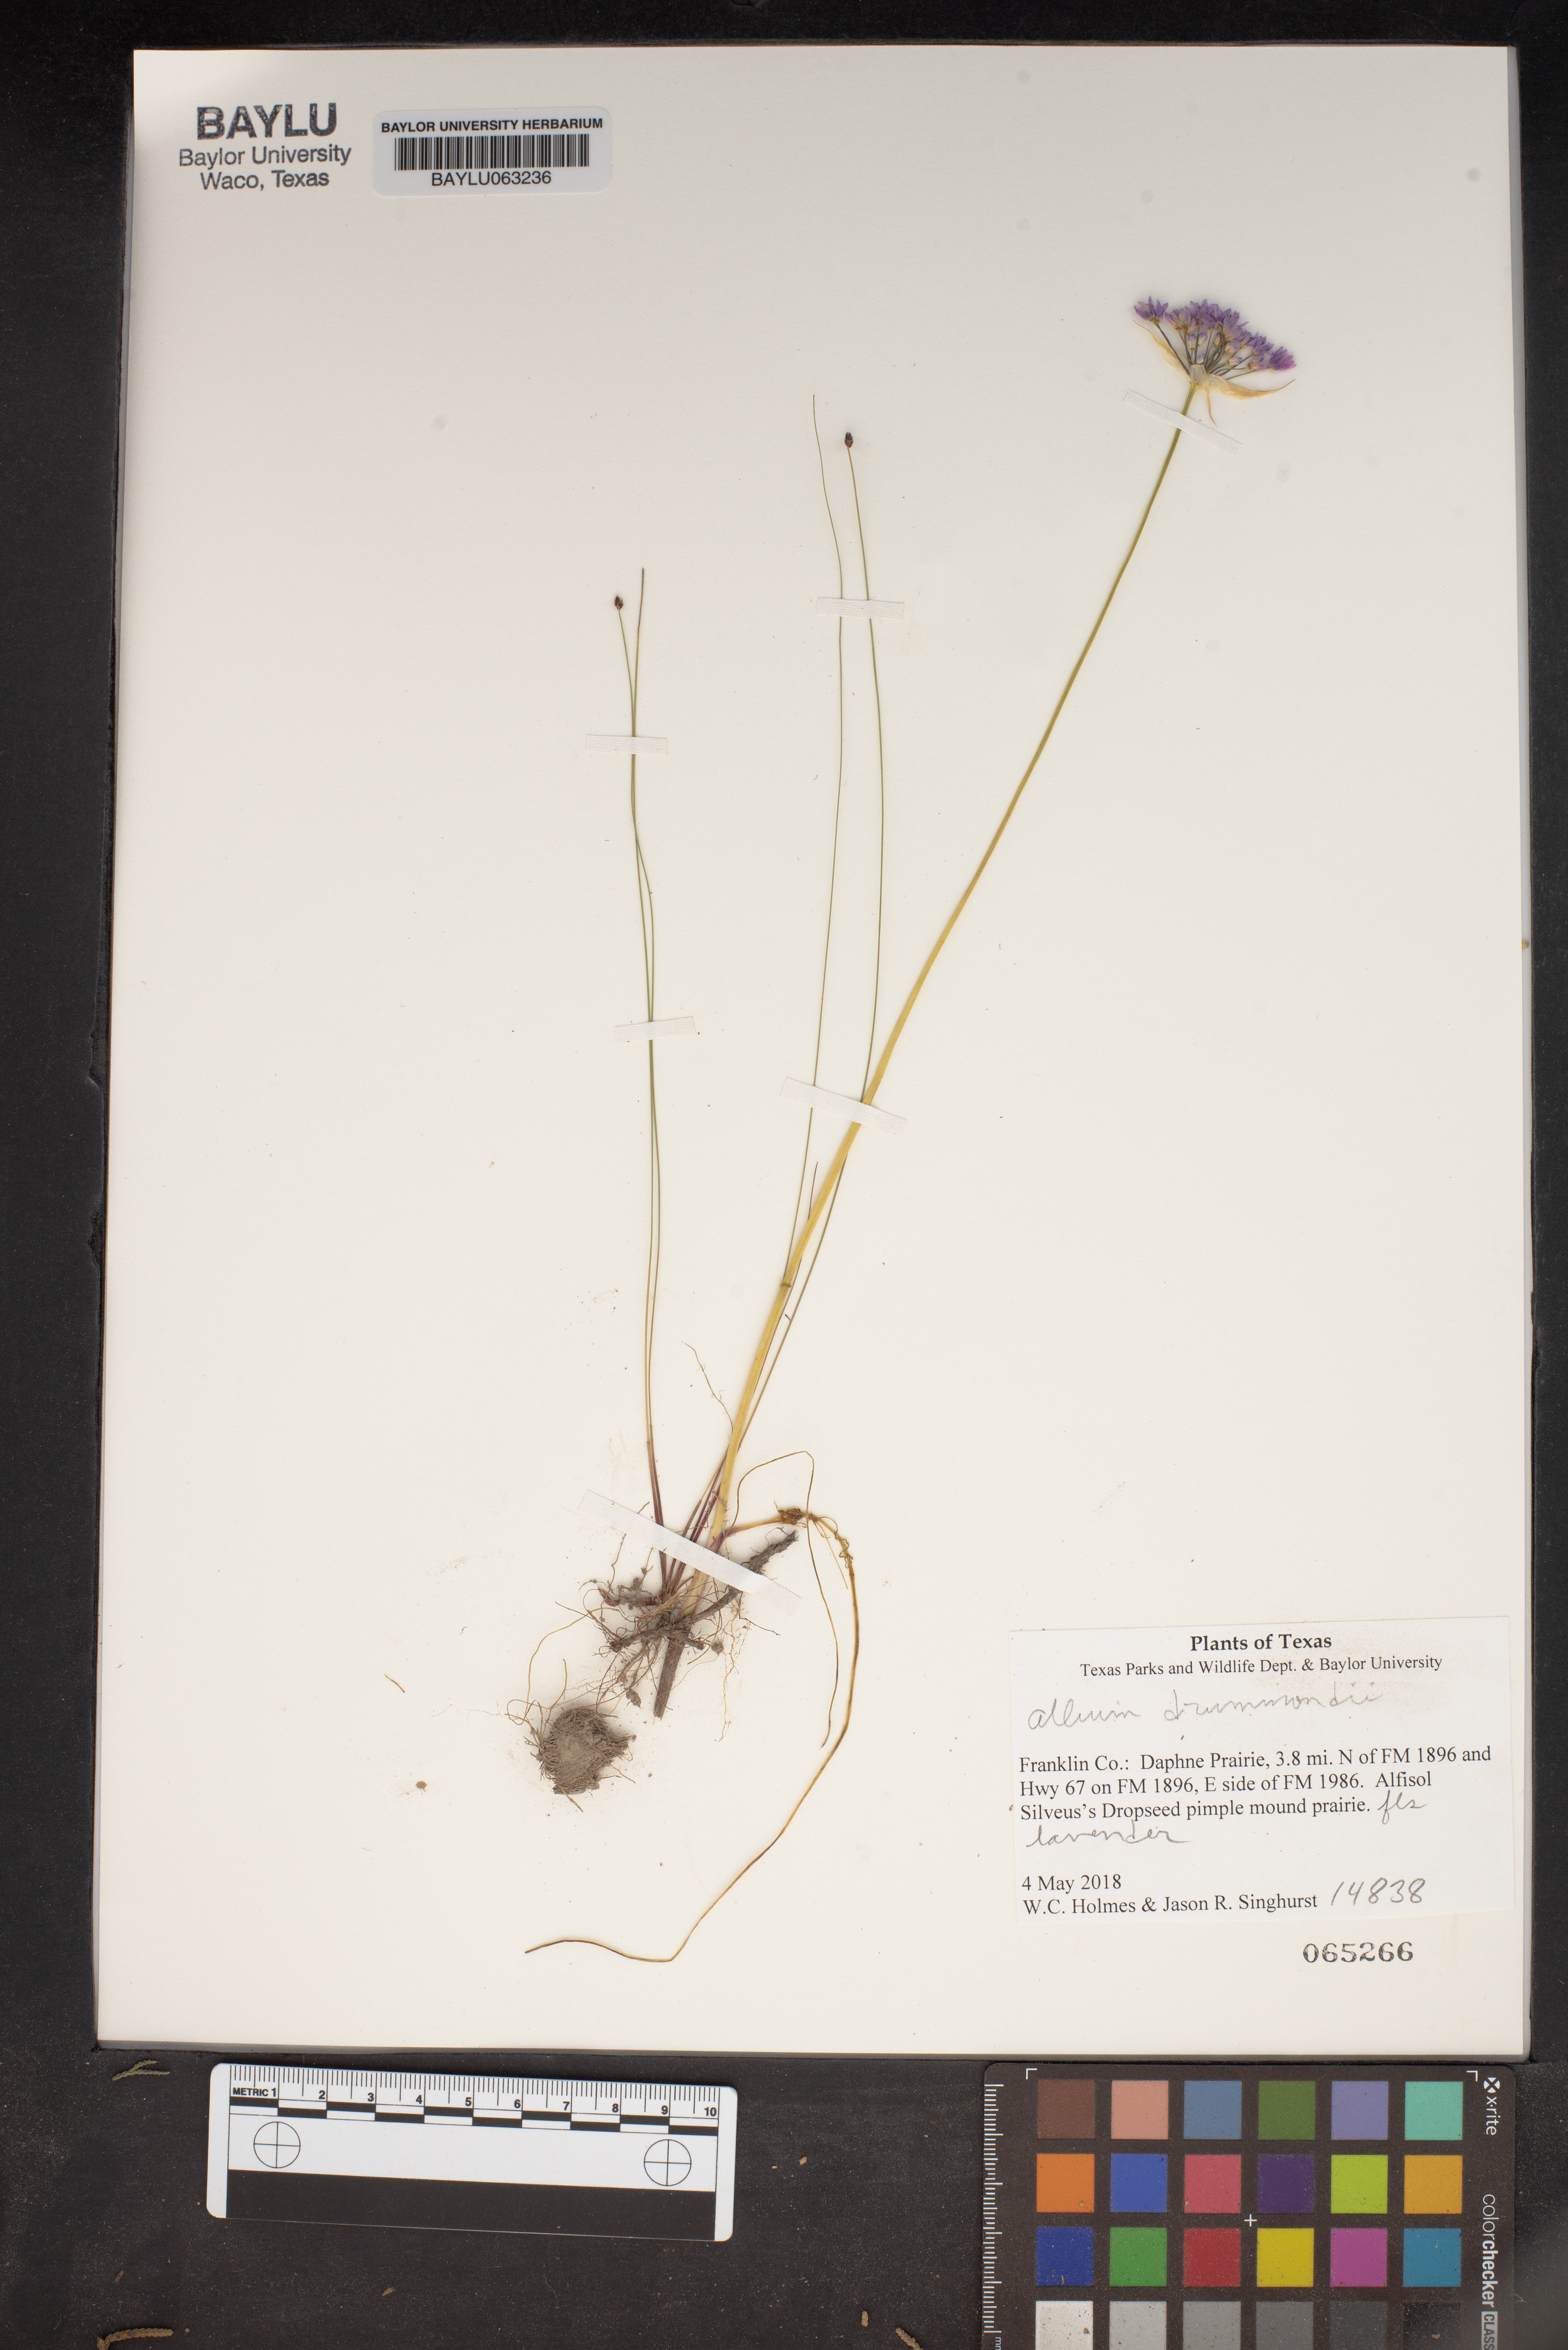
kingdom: Plantae
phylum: Tracheophyta
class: Liliopsida
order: Asparagales
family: Amaryllidaceae
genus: Allium
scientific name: Allium drummondii
